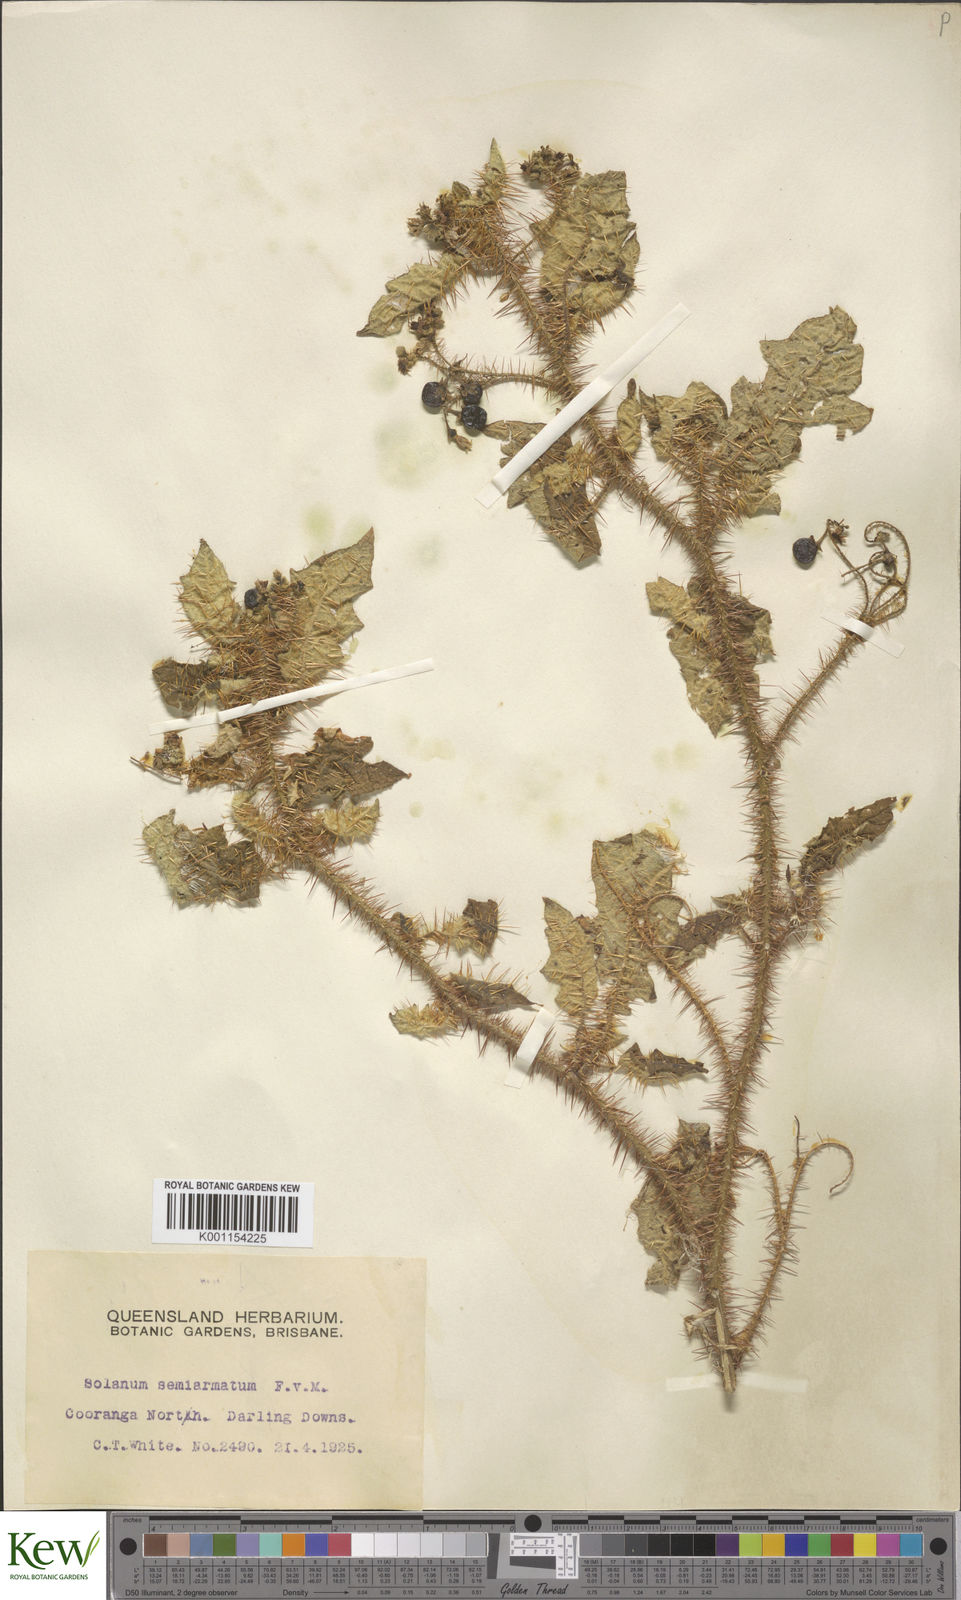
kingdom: Plantae
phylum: Tracheophyta
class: Magnoliopsida
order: Solanales
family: Solanaceae
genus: Solanum
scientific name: Solanum semiarmatum
